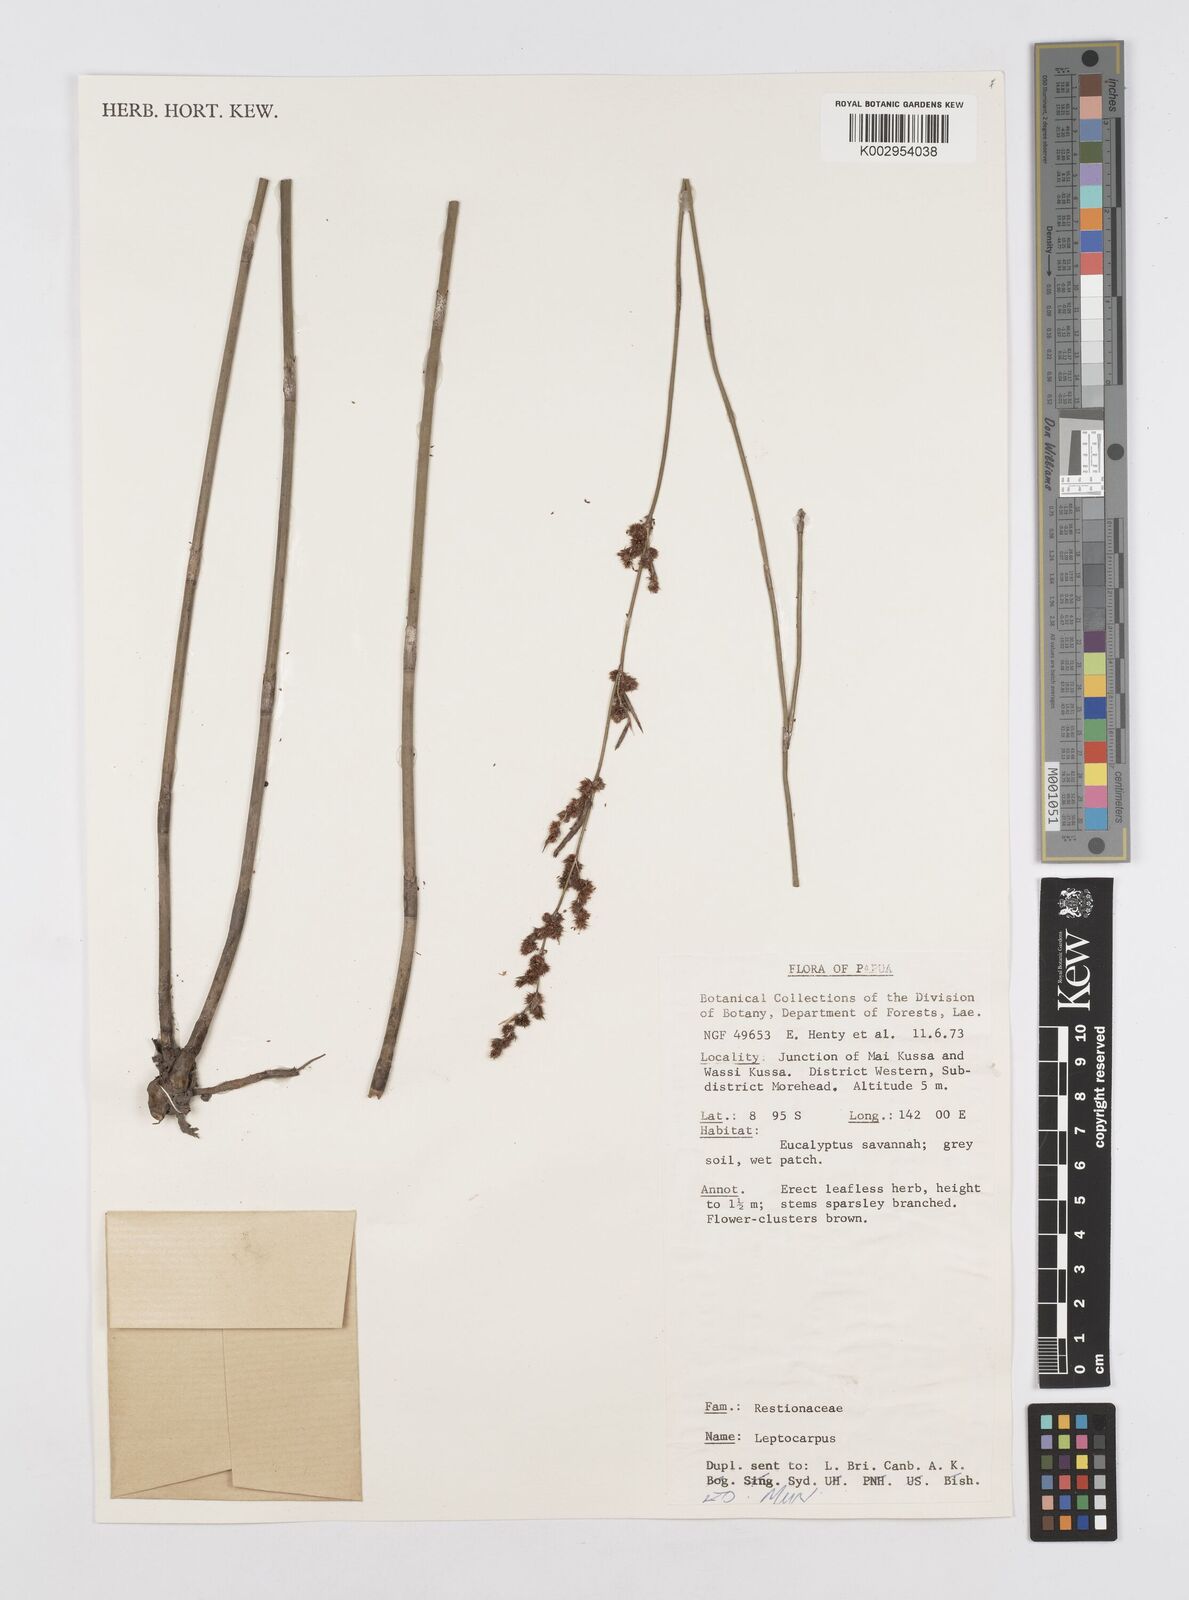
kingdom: Plantae
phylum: Tracheophyta
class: Liliopsida
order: Poales
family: Restionaceae
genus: Dapsilanthus
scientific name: Dapsilanthus elatior
